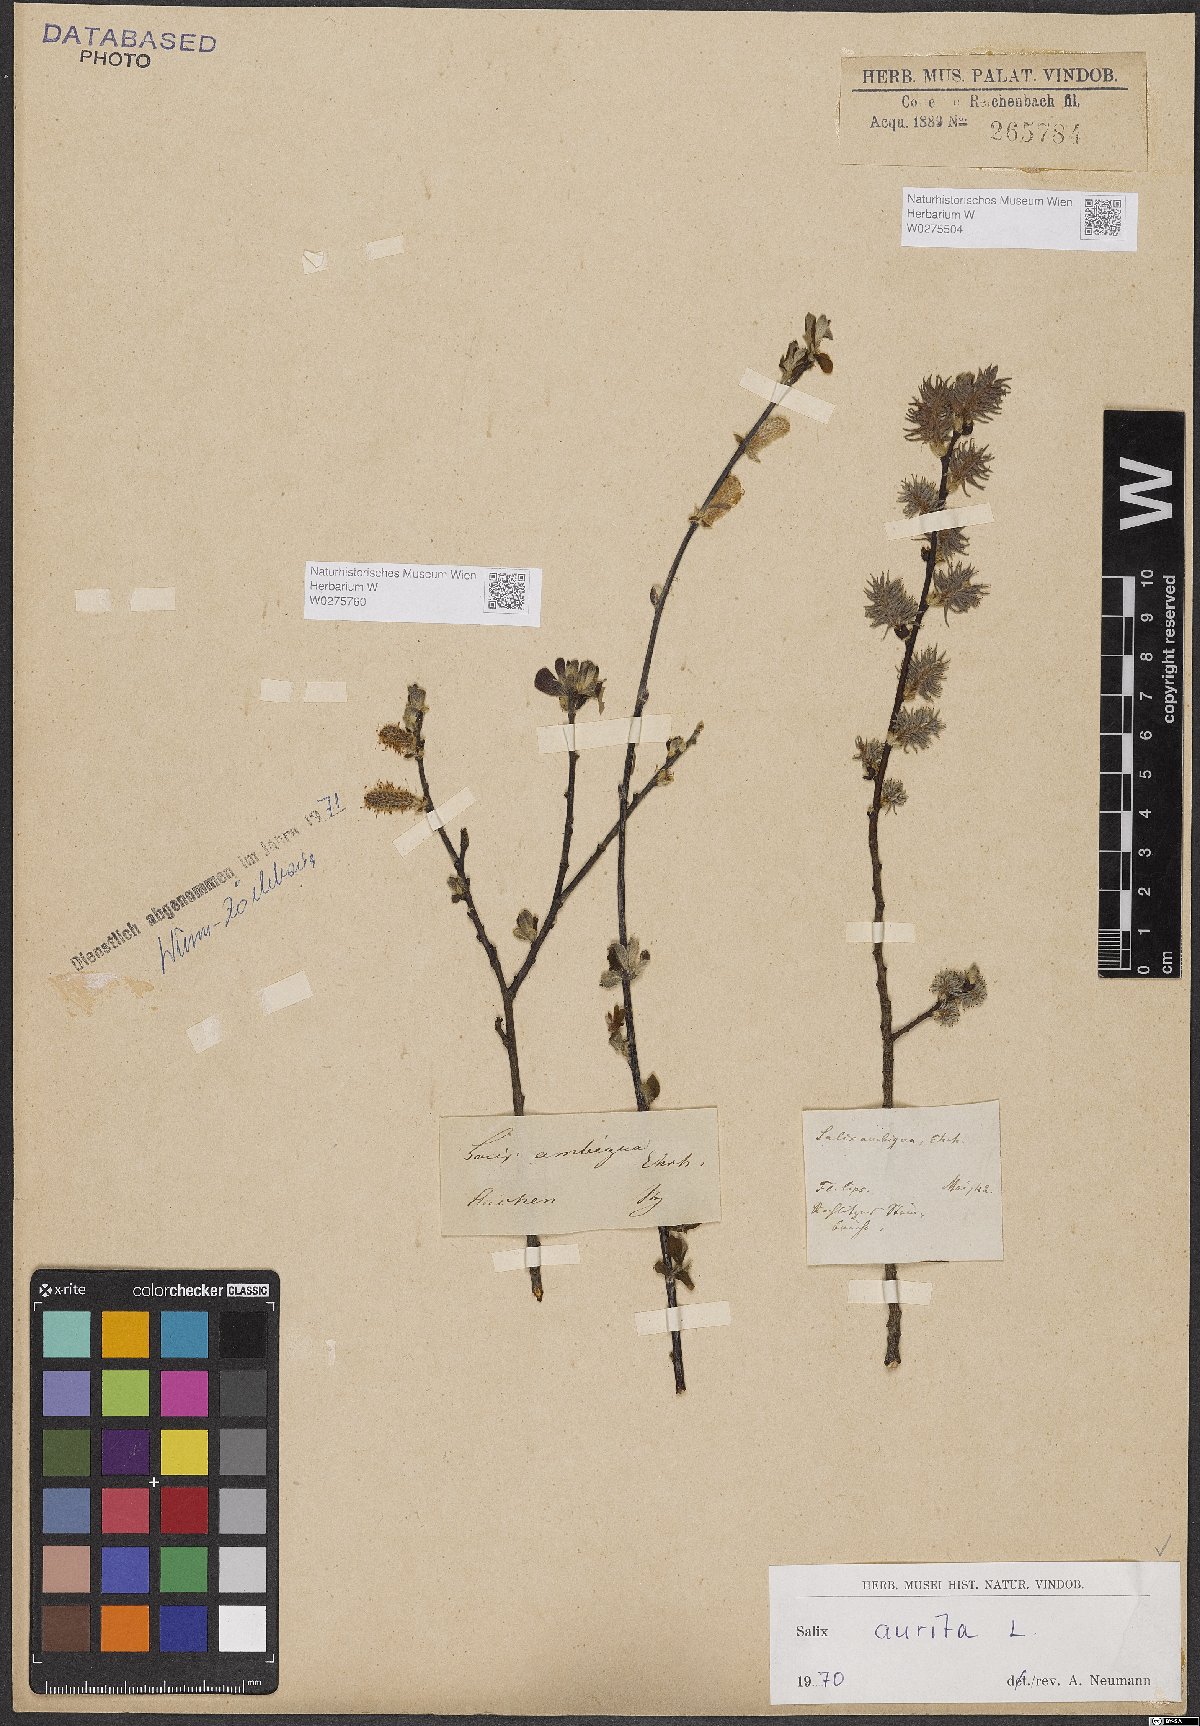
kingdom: Plantae
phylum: Tracheophyta
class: Magnoliopsida
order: Malpighiales
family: Salicaceae
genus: Salix
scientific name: Salix aurita
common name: Eared willow
